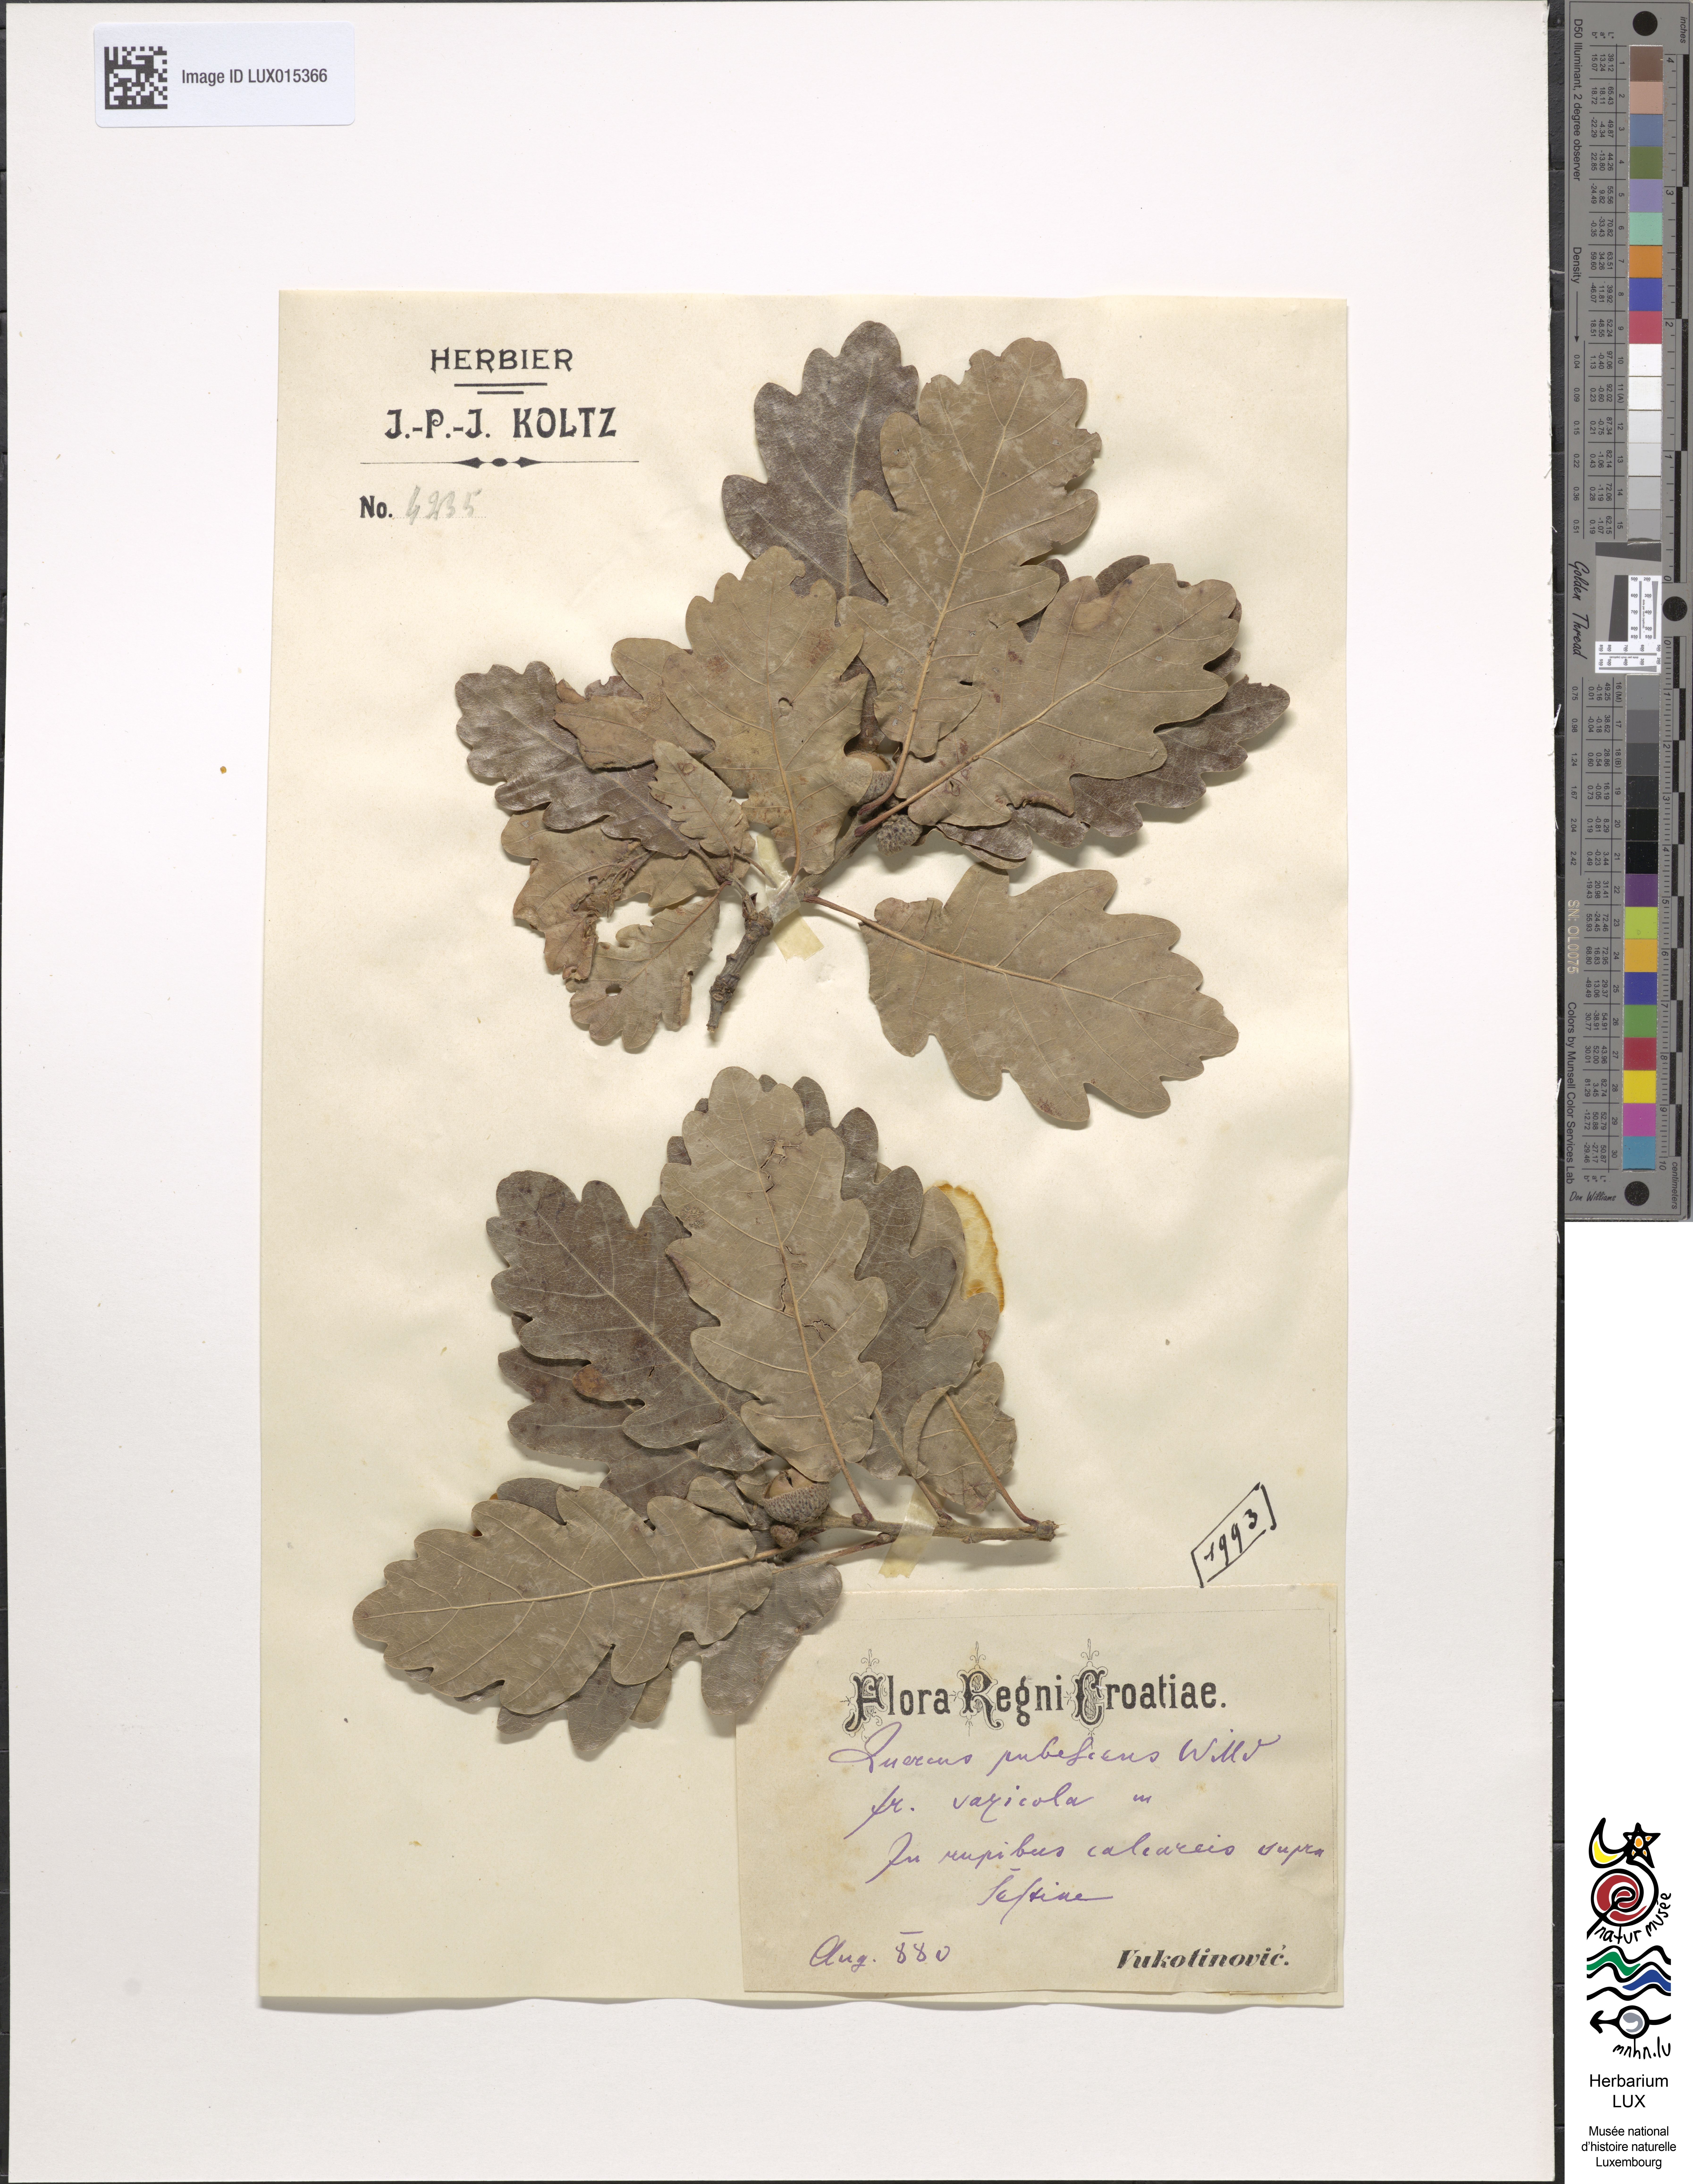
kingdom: Plantae
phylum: Tracheophyta
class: Magnoliopsida
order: Fagales
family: Fagaceae
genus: Quercus
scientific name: Quercus pubescens
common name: Downy oak
